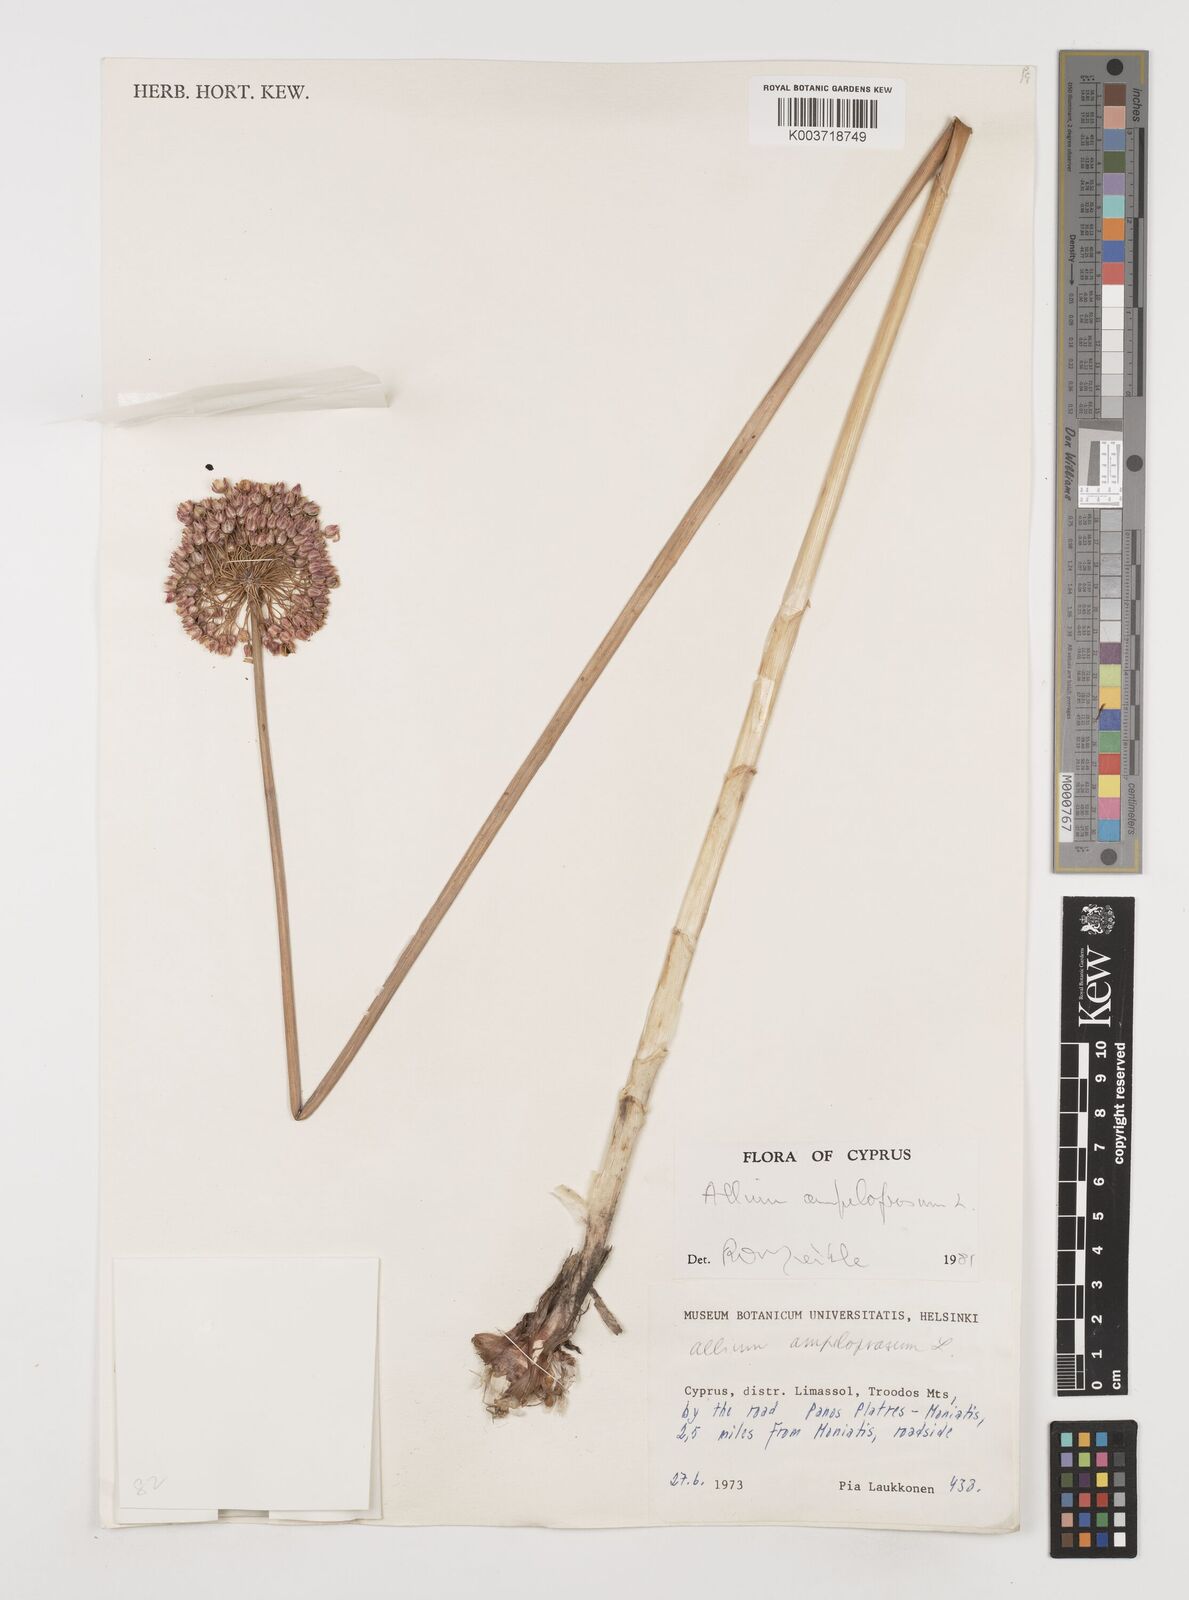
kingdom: Plantae
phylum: Tracheophyta
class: Liliopsida
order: Asparagales
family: Amaryllidaceae
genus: Allium
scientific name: Allium rotundum
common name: Sand leek
